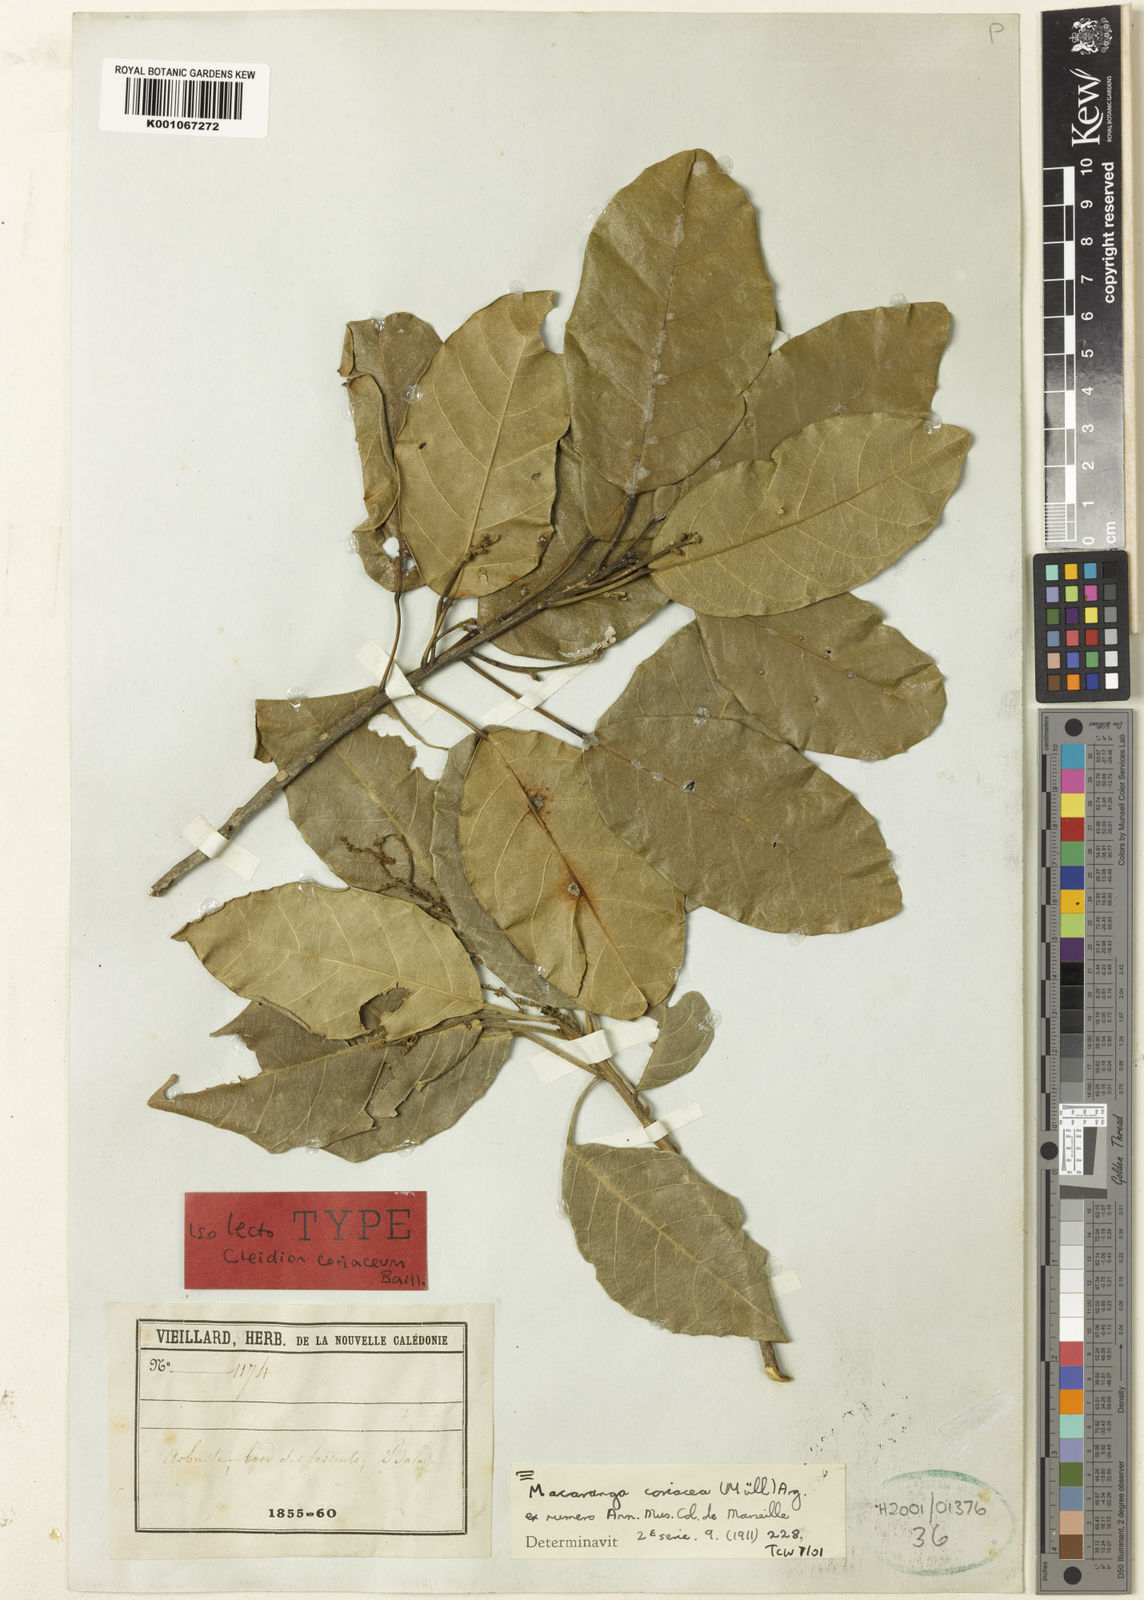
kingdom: Plantae
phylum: Tracheophyta
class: Magnoliopsida
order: Malpighiales
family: Euphorbiaceae
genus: Macaranga
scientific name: Macaranga
